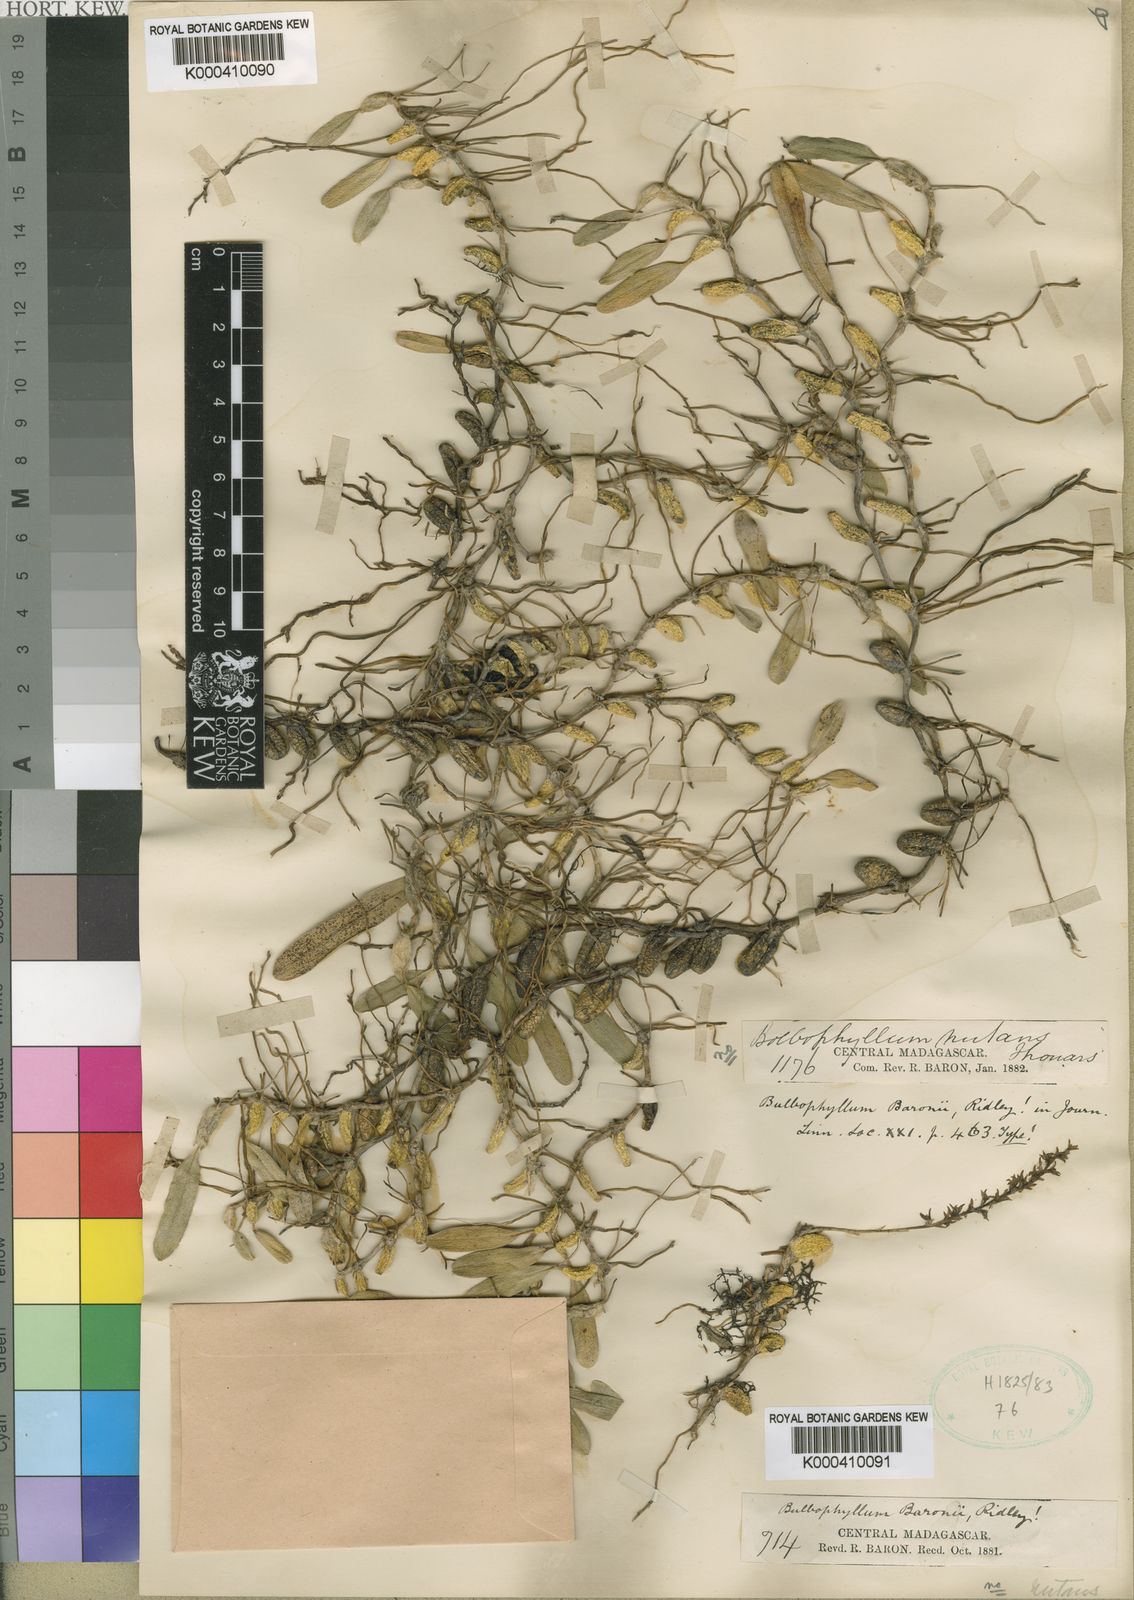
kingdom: Plantae
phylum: Tracheophyta
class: Liliopsida
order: Asparagales
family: Orchidaceae
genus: Bulbophyllum
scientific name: Bulbophyllum baronii
